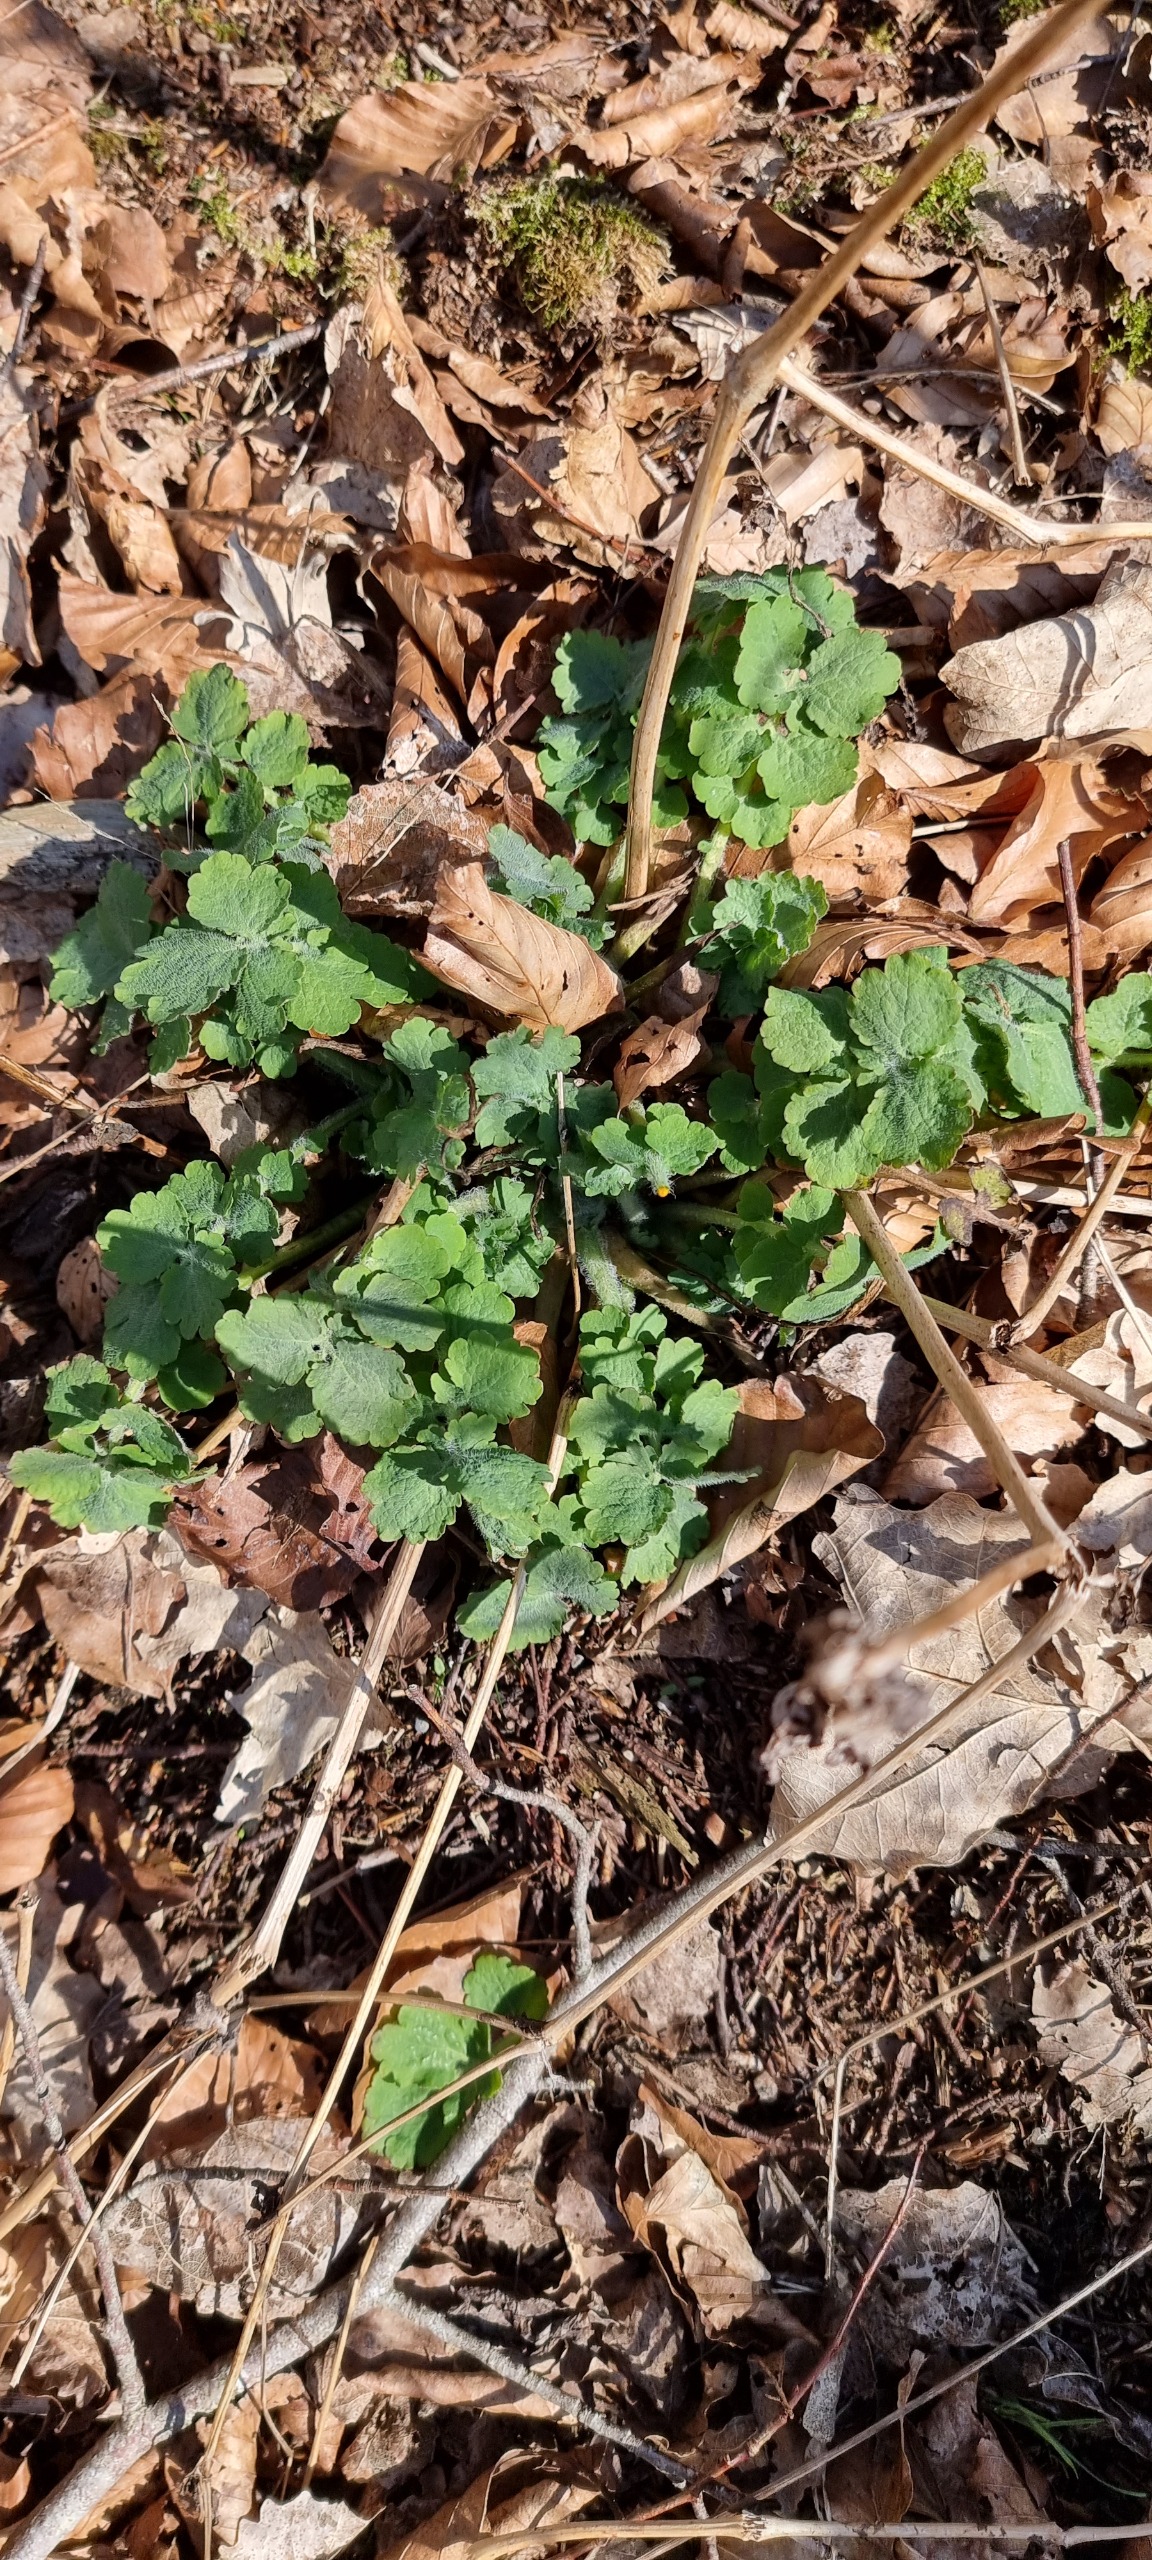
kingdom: Plantae
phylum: Tracheophyta
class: Magnoliopsida
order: Ranunculales
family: Papaveraceae
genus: Chelidonium
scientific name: Chelidonium majus
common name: Svaleurt
